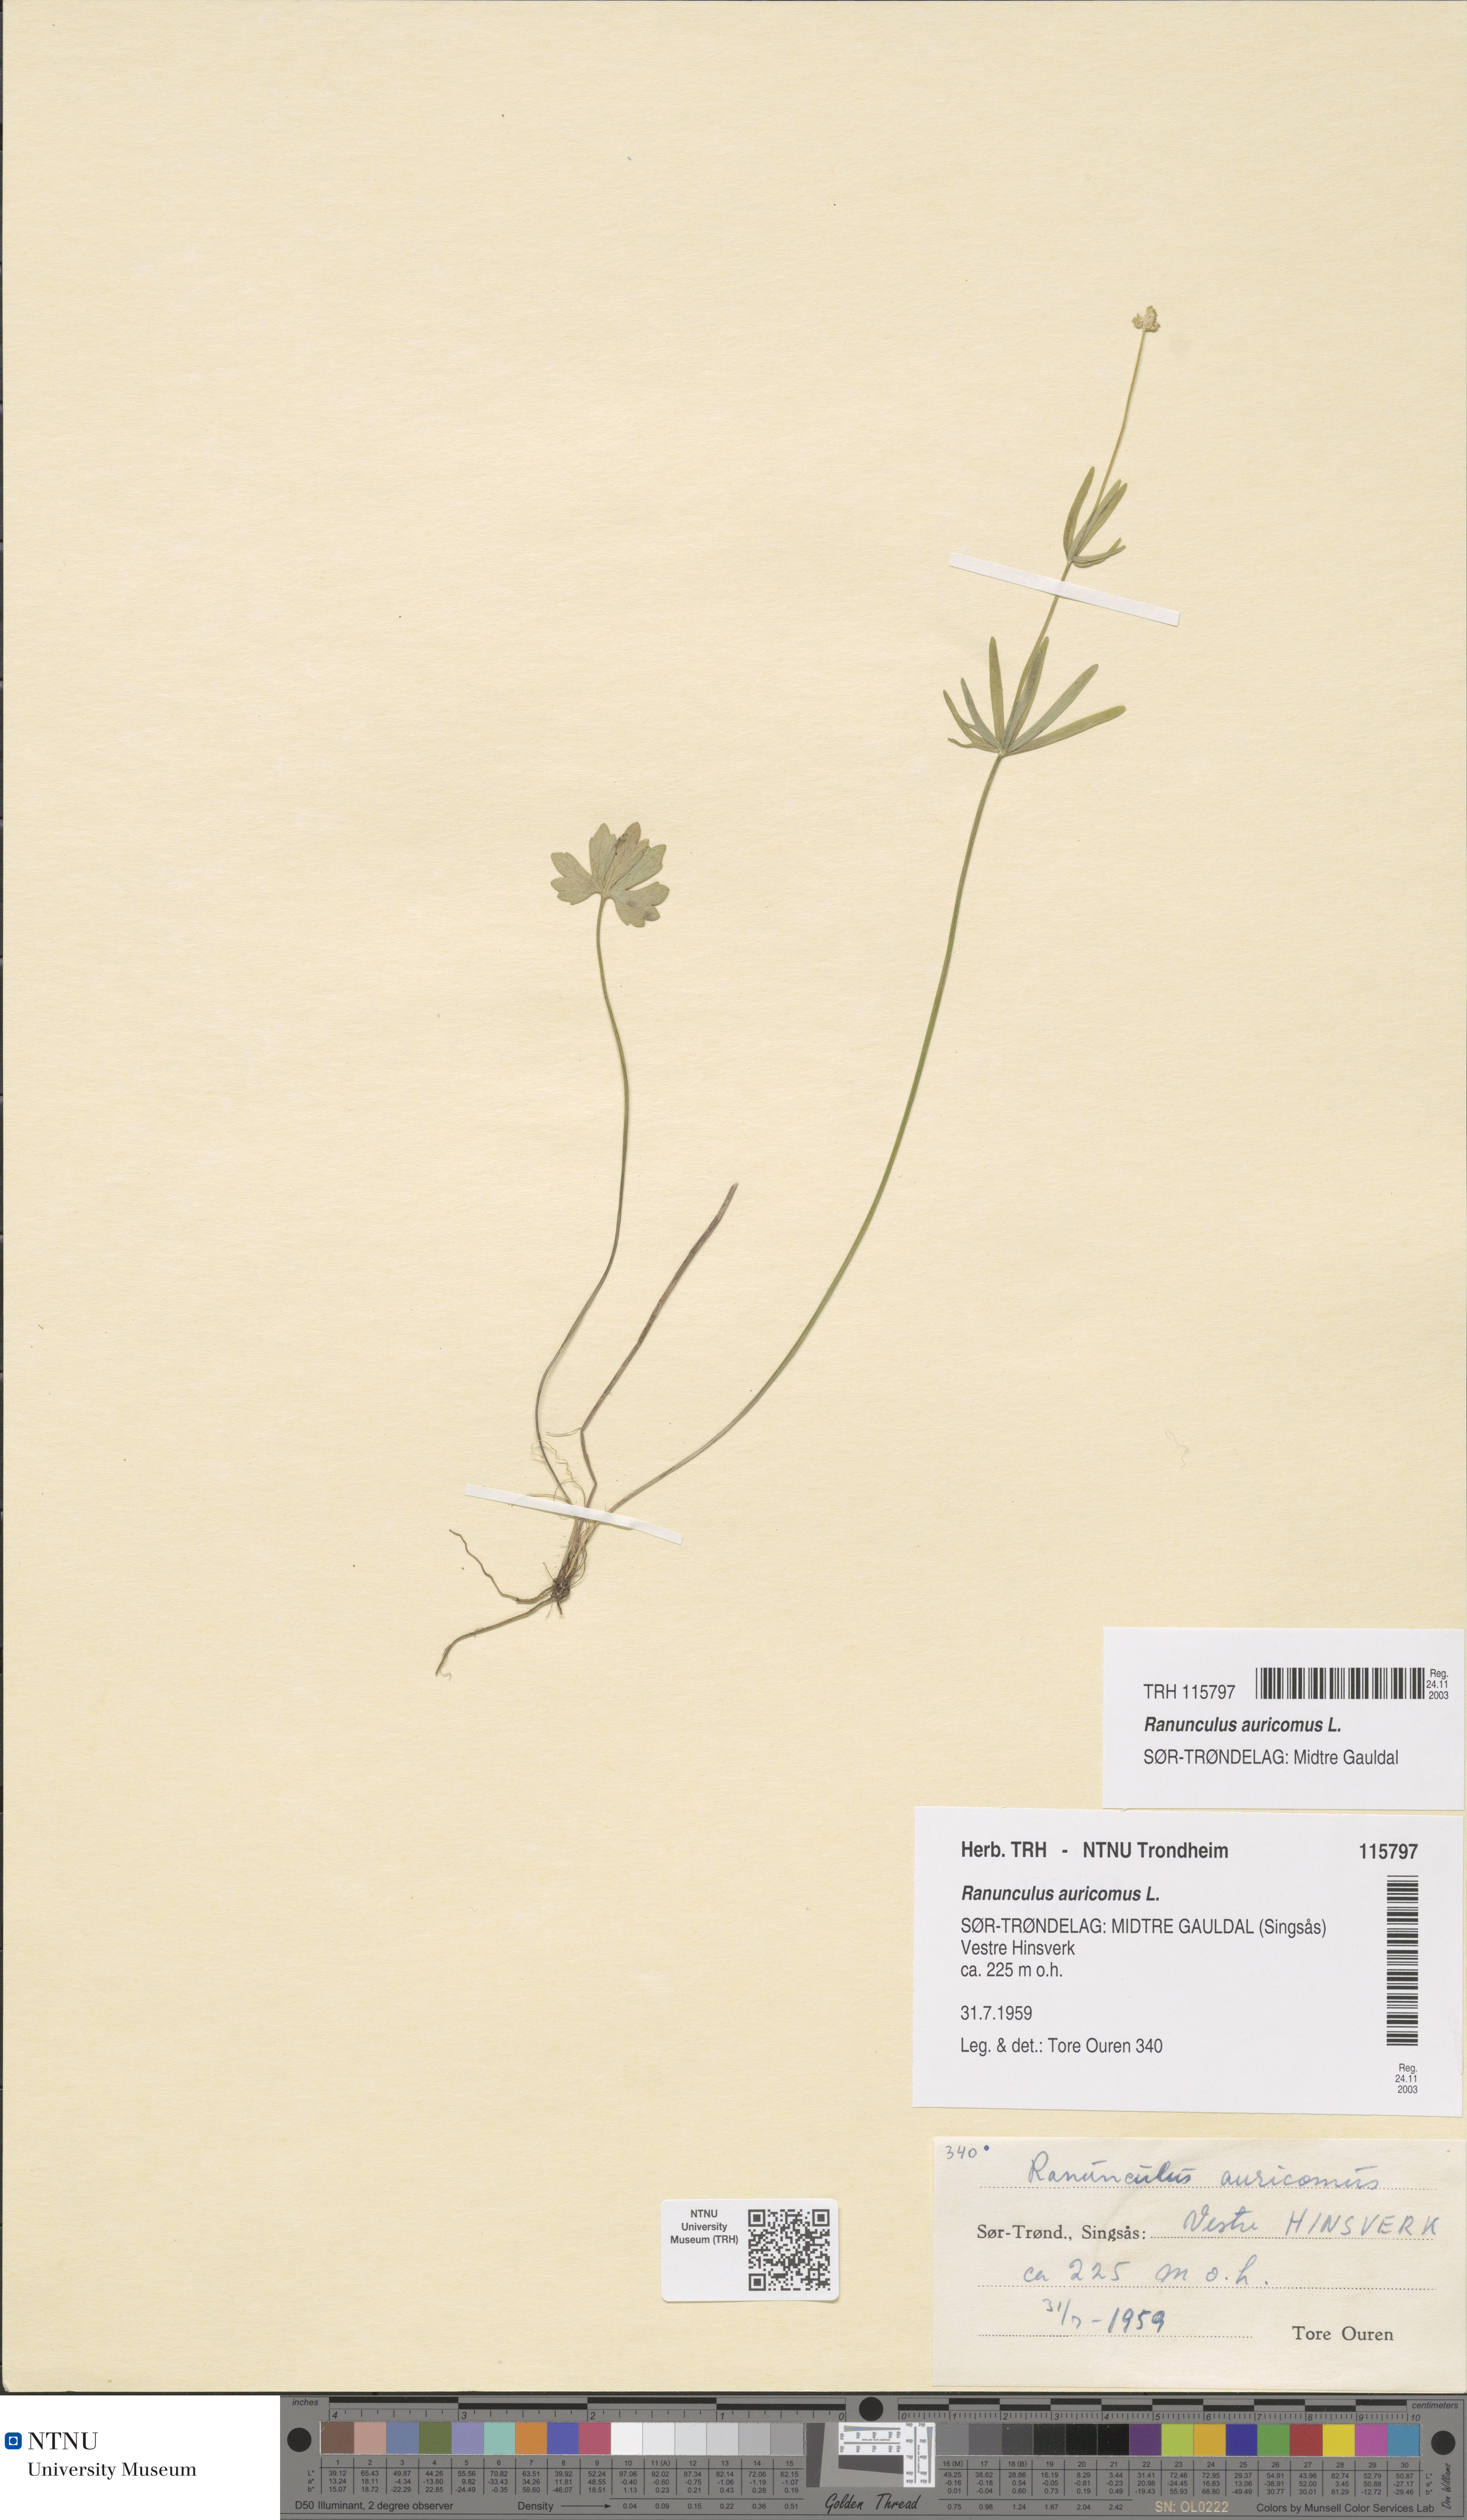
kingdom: Plantae
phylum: Tracheophyta
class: Magnoliopsida
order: Ranunculales
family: Ranunculaceae
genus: Ranunculus
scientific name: Ranunculus auricomus
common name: Goldilocks buttercup
